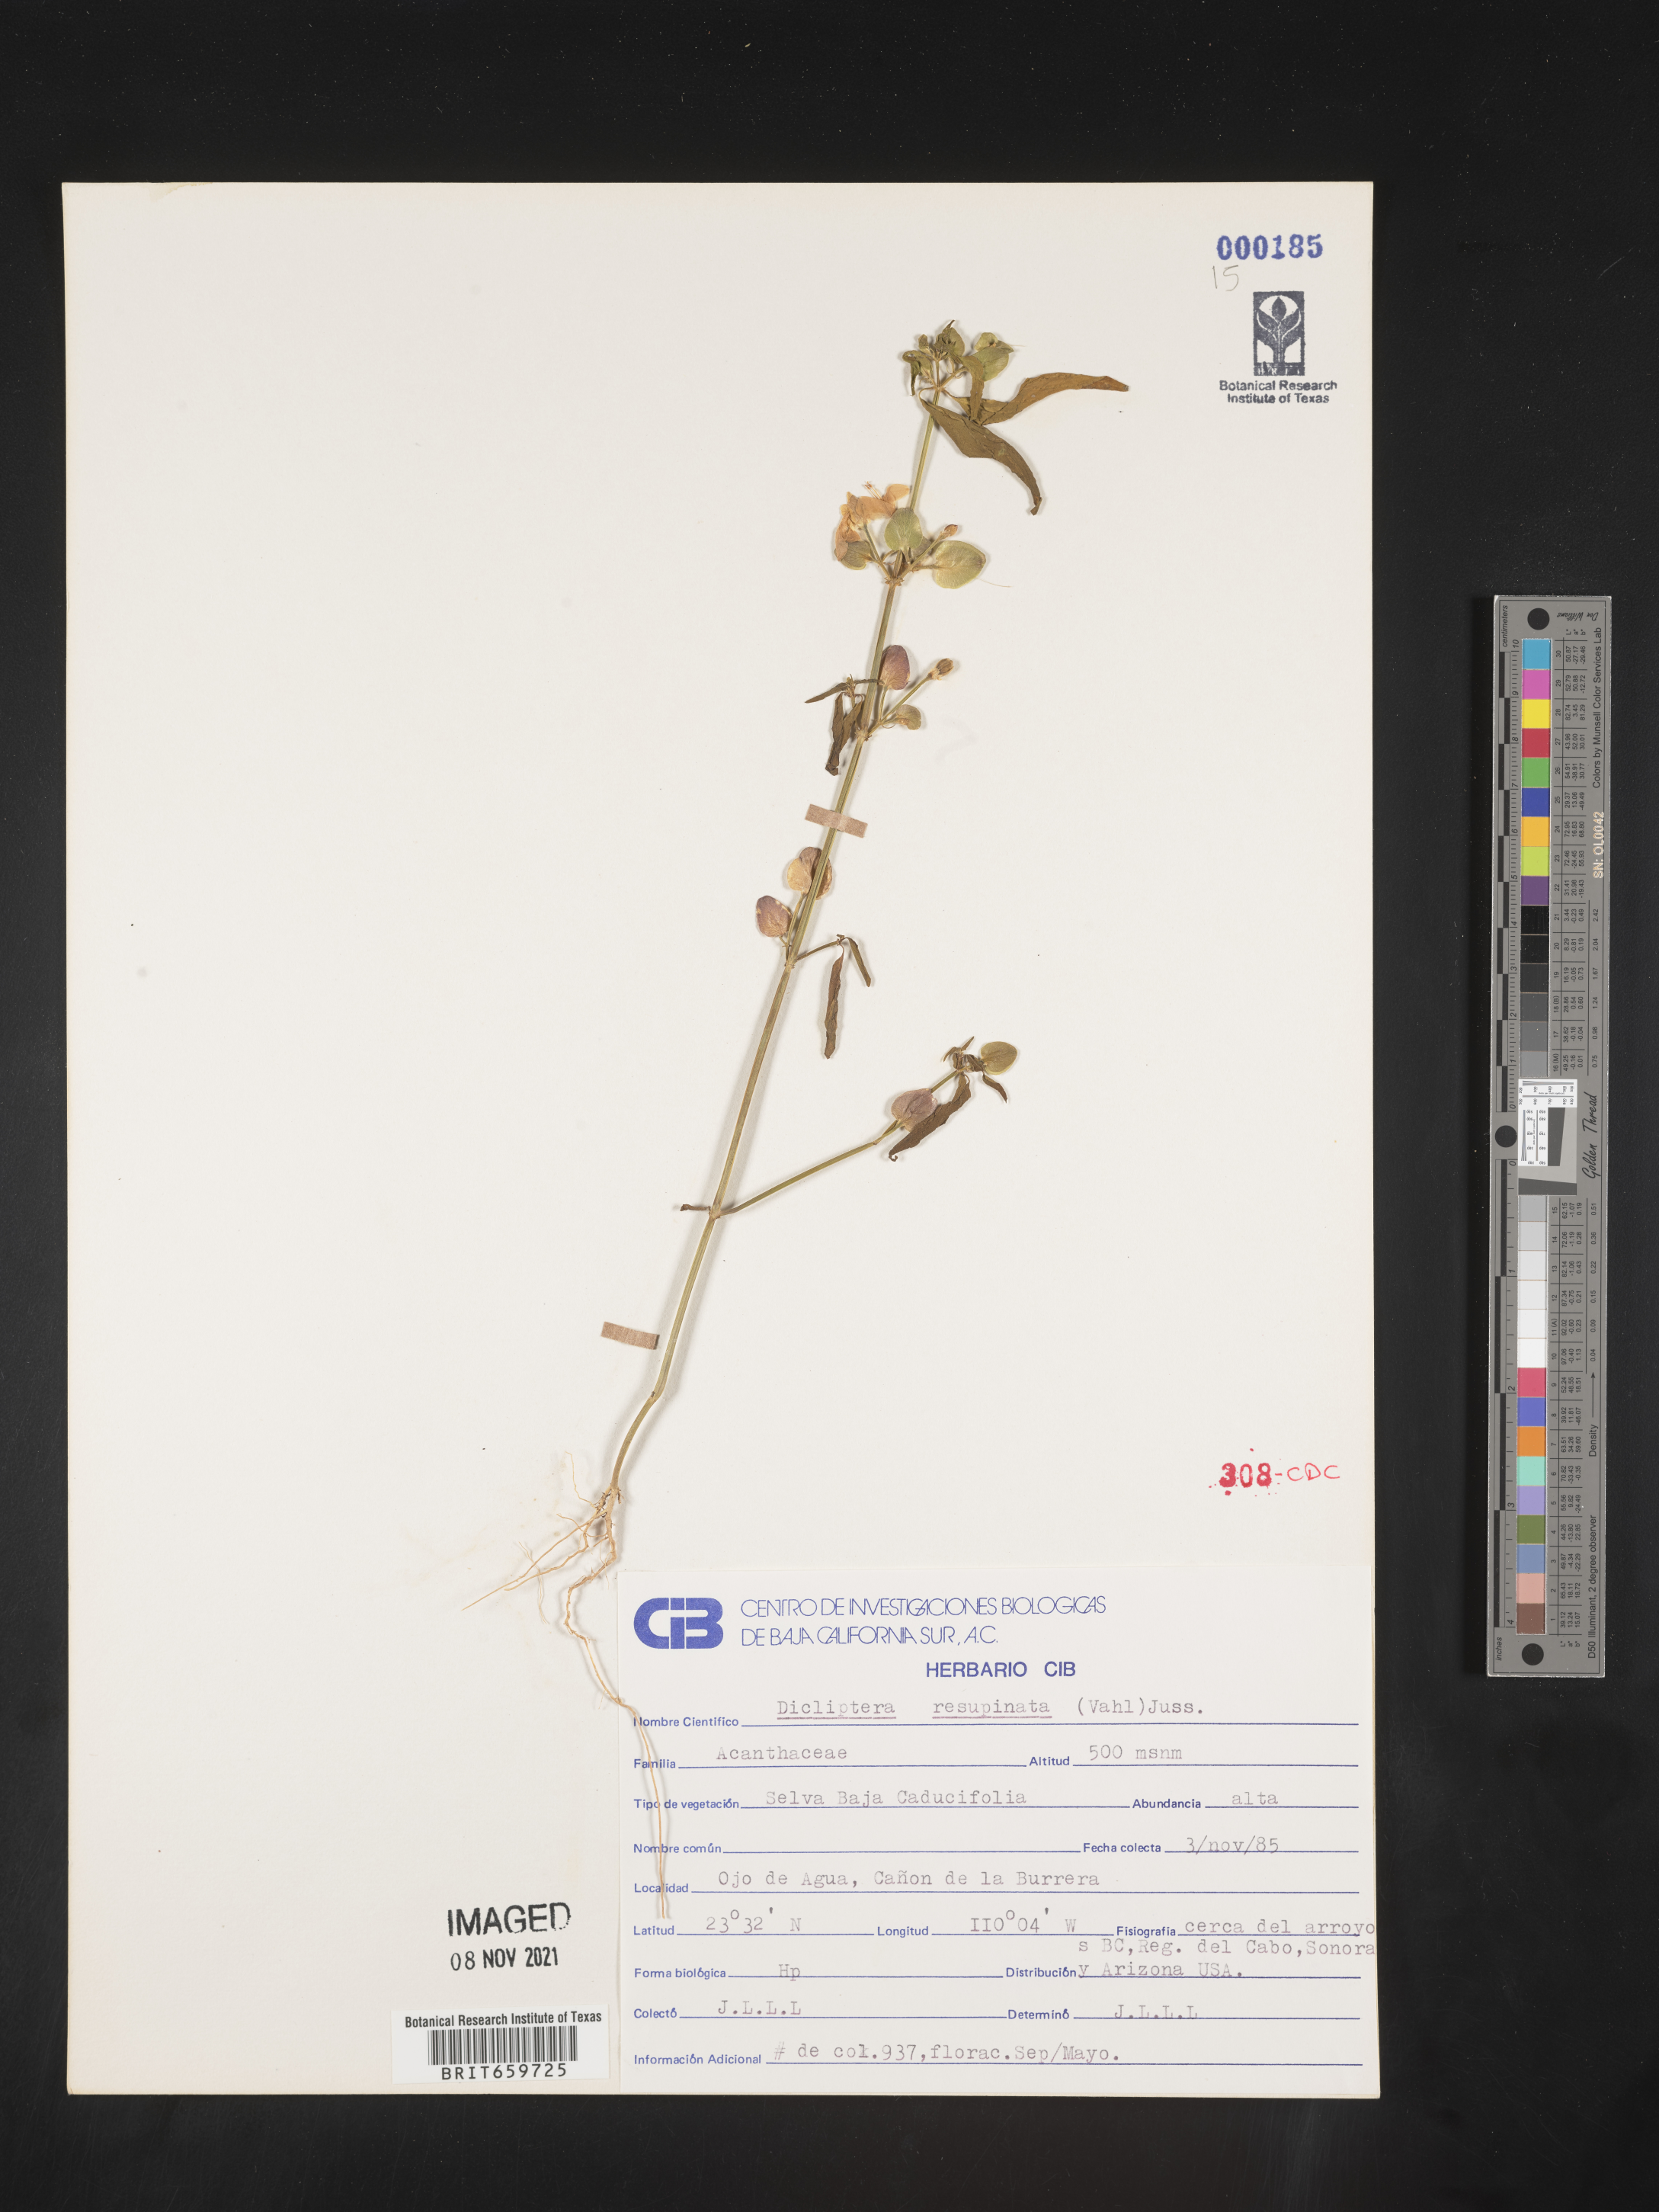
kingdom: Plantae
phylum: Tracheophyta
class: Magnoliopsida
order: Lamiales
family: Acanthaceae
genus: Dicliptera
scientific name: Dicliptera
